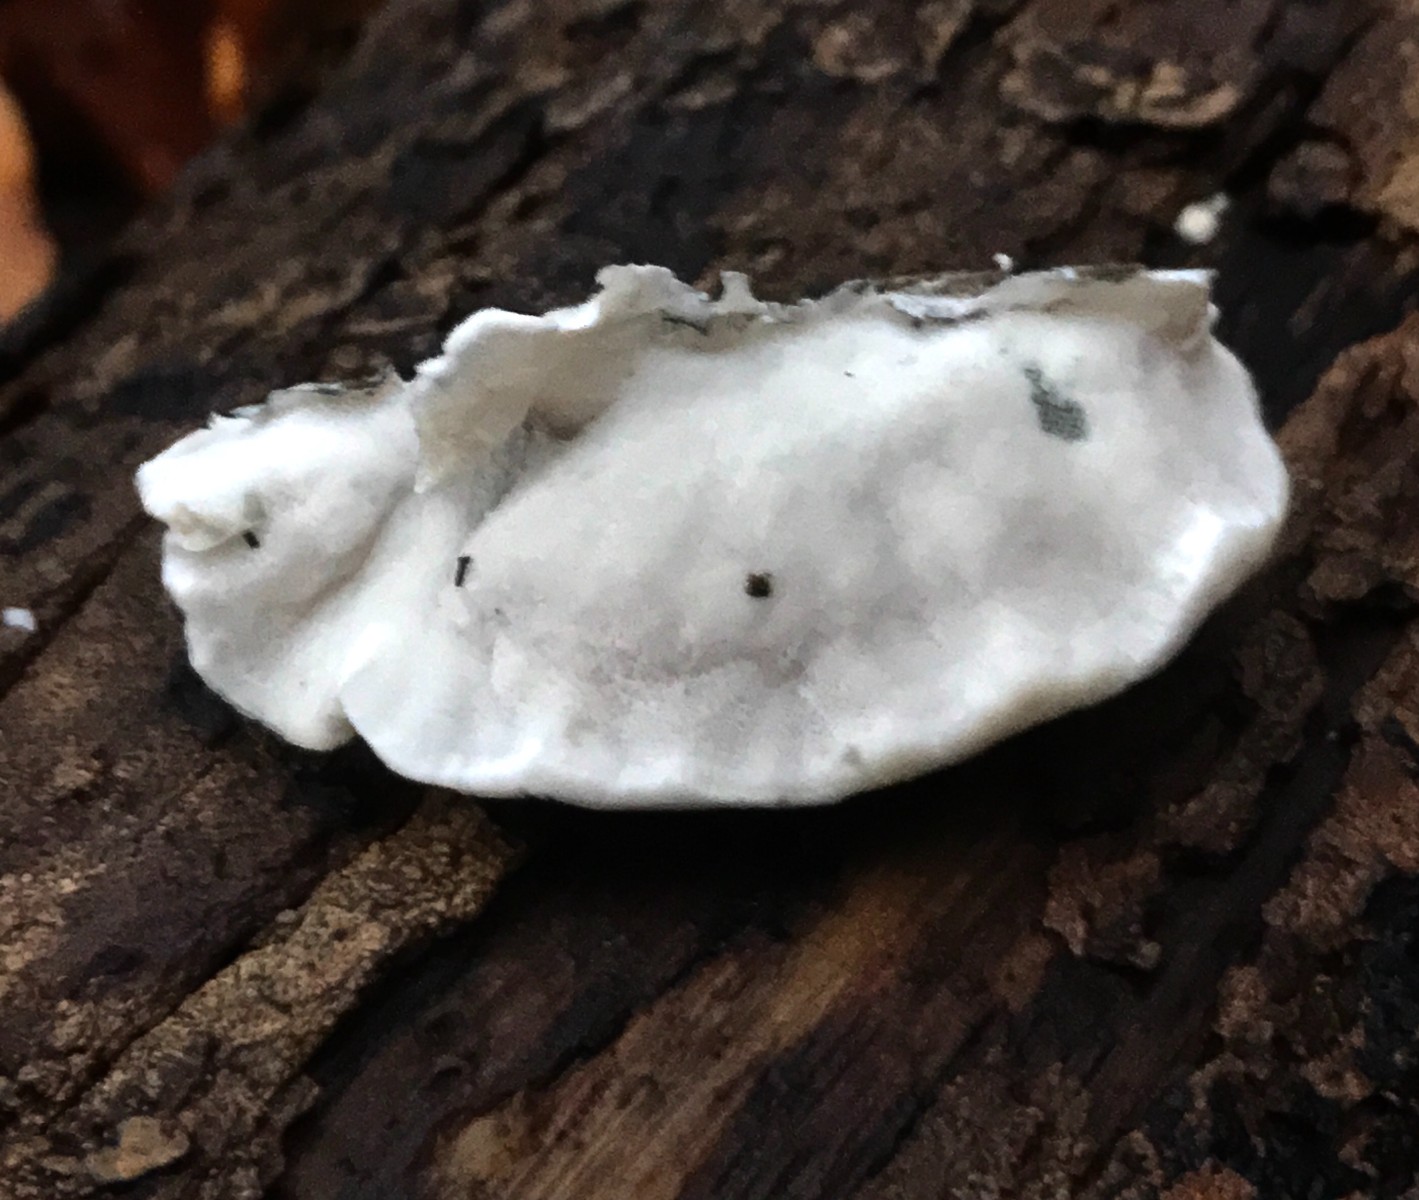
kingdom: Fungi
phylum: Basidiomycota
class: Agaricomycetes
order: Polyporales
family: Polyporaceae
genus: Cyanosporus
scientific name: Cyanosporus alni
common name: blegblå kødporesvamp
